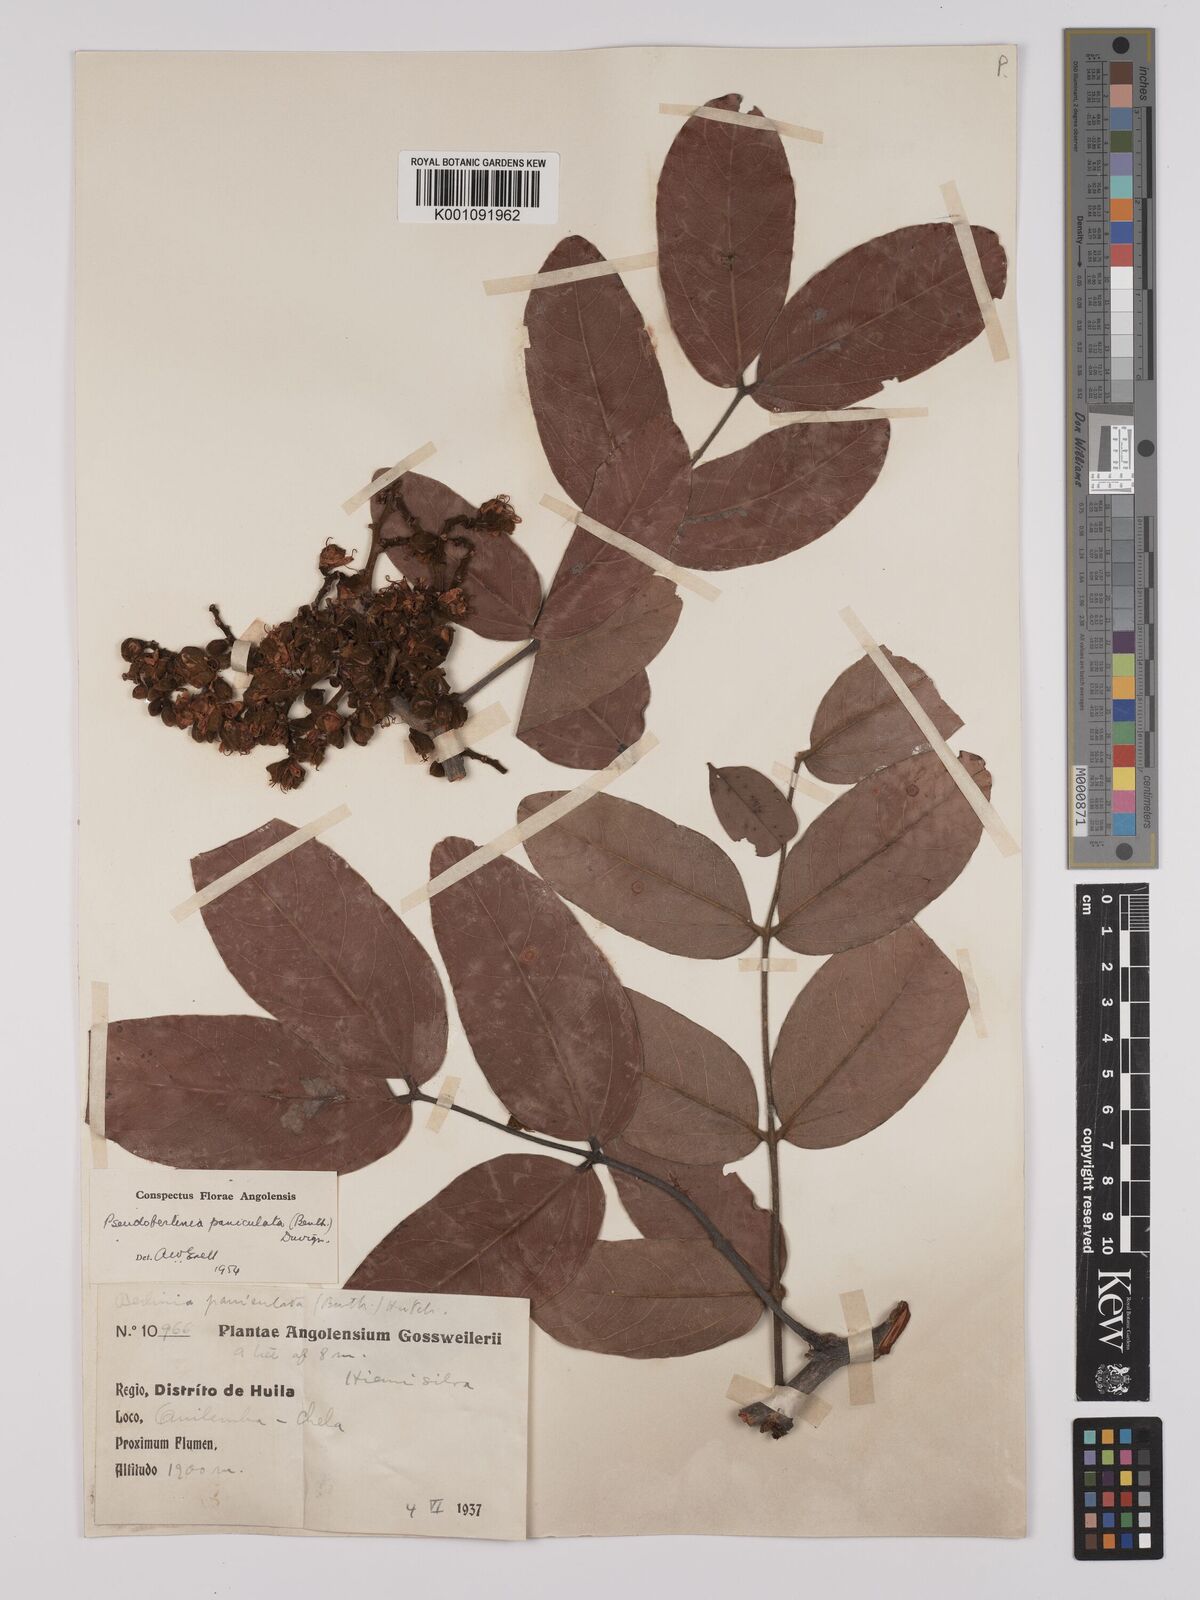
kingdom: Plantae
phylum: Tracheophyta
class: Magnoliopsida
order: Fabales
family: Fabaceae
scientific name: Fabaceae
